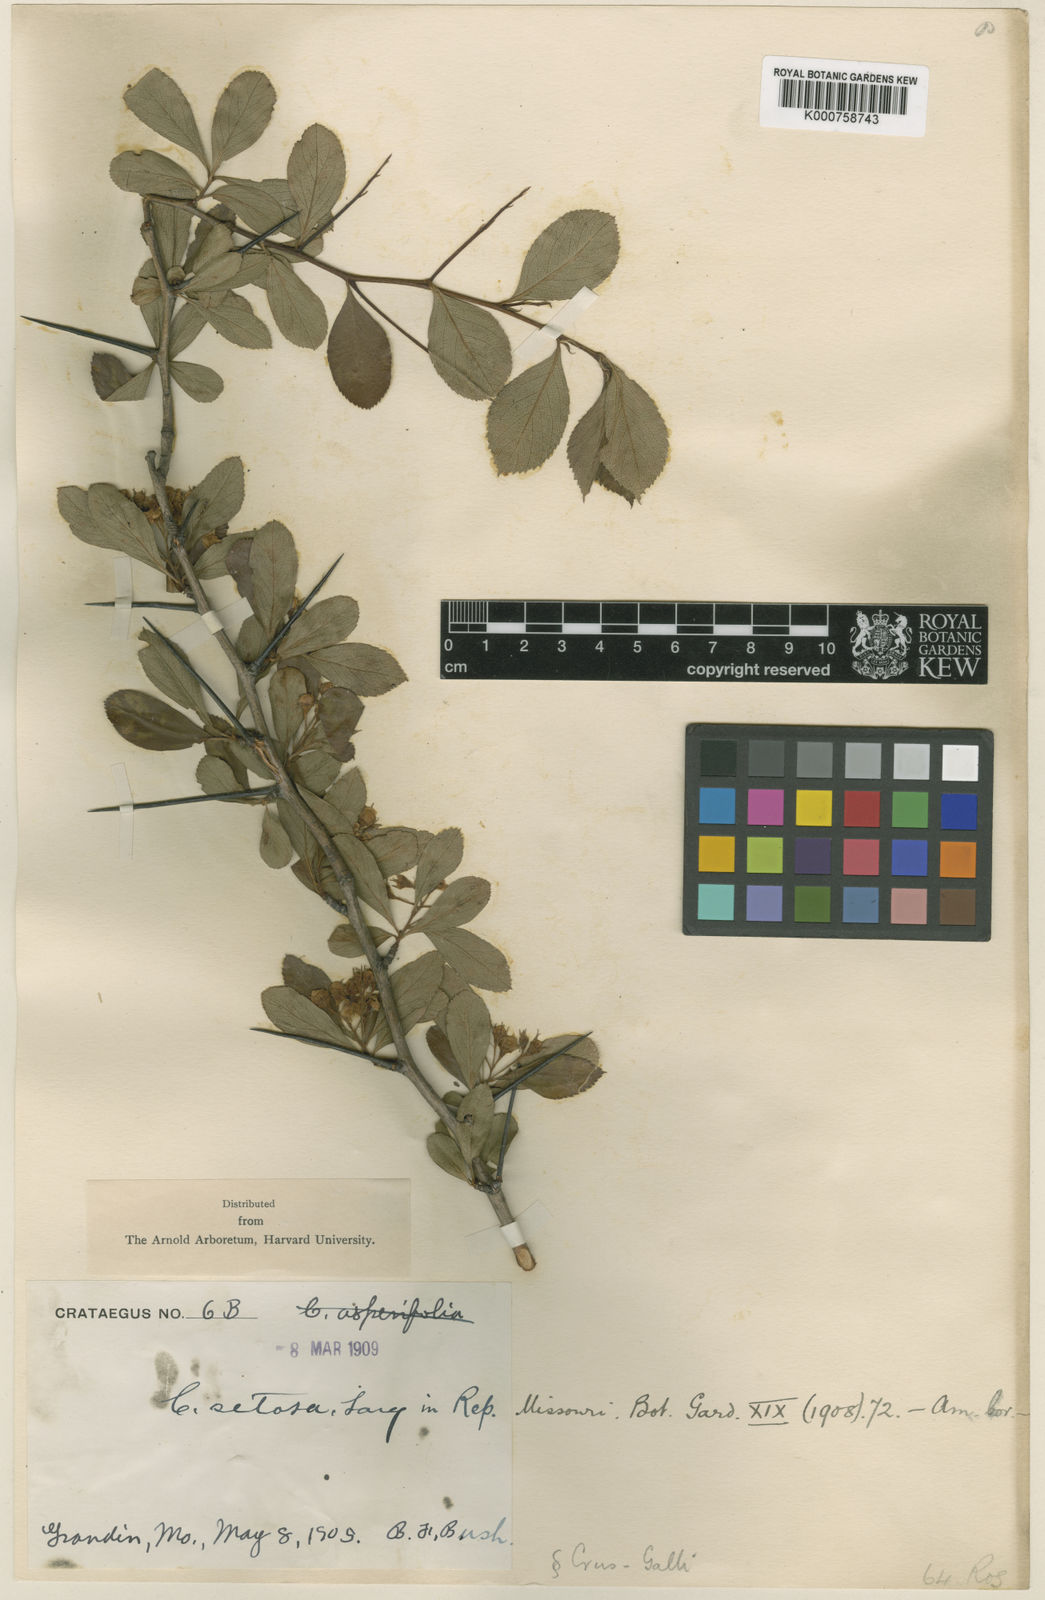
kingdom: Plantae
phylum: Tracheophyta
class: Magnoliopsida
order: Rosales
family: Rosaceae
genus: Crataegus
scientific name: Crataegus crus-galli
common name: Cockspurthorn
